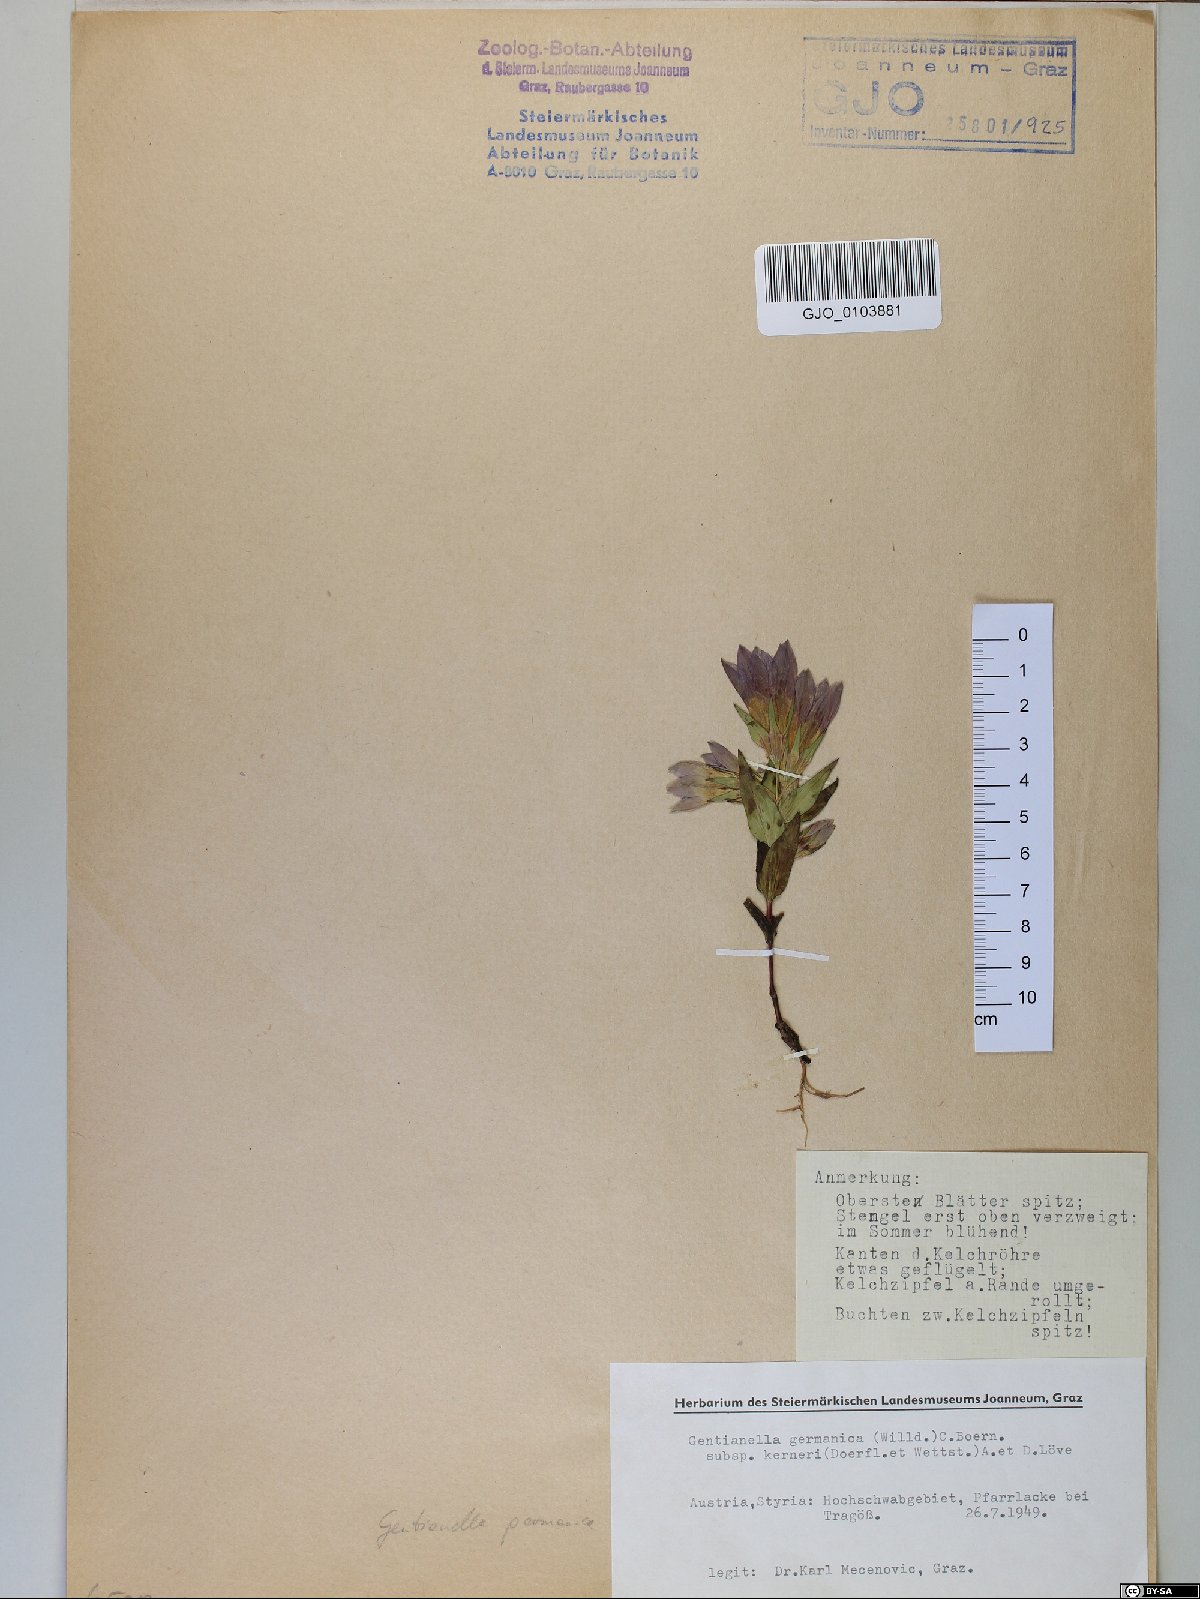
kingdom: Plantae
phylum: Tracheophyta
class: Magnoliopsida
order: Gentianales
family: Gentianaceae
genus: Gentianella
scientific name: Gentianella rhaetica
